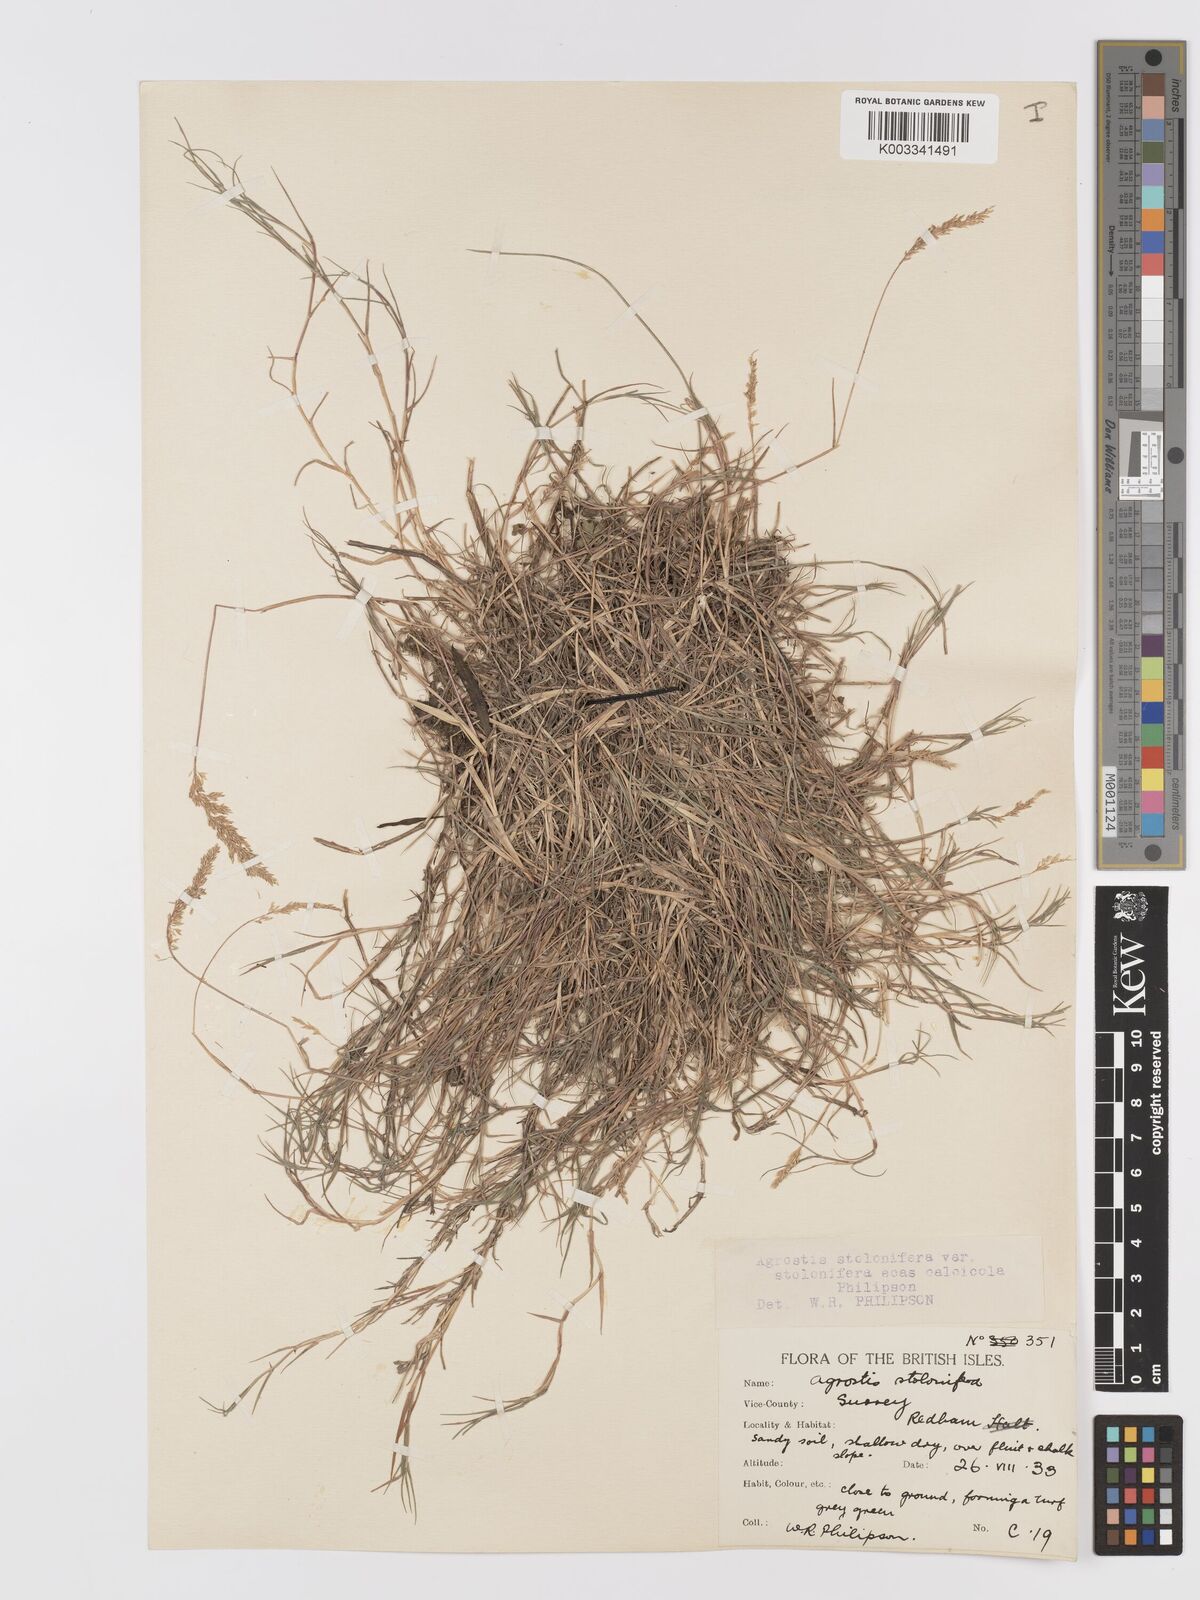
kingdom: Plantae
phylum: Tracheophyta
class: Liliopsida
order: Poales
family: Poaceae
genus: Agrostis
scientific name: Agrostis stolonifera
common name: Creeping bentgrass
